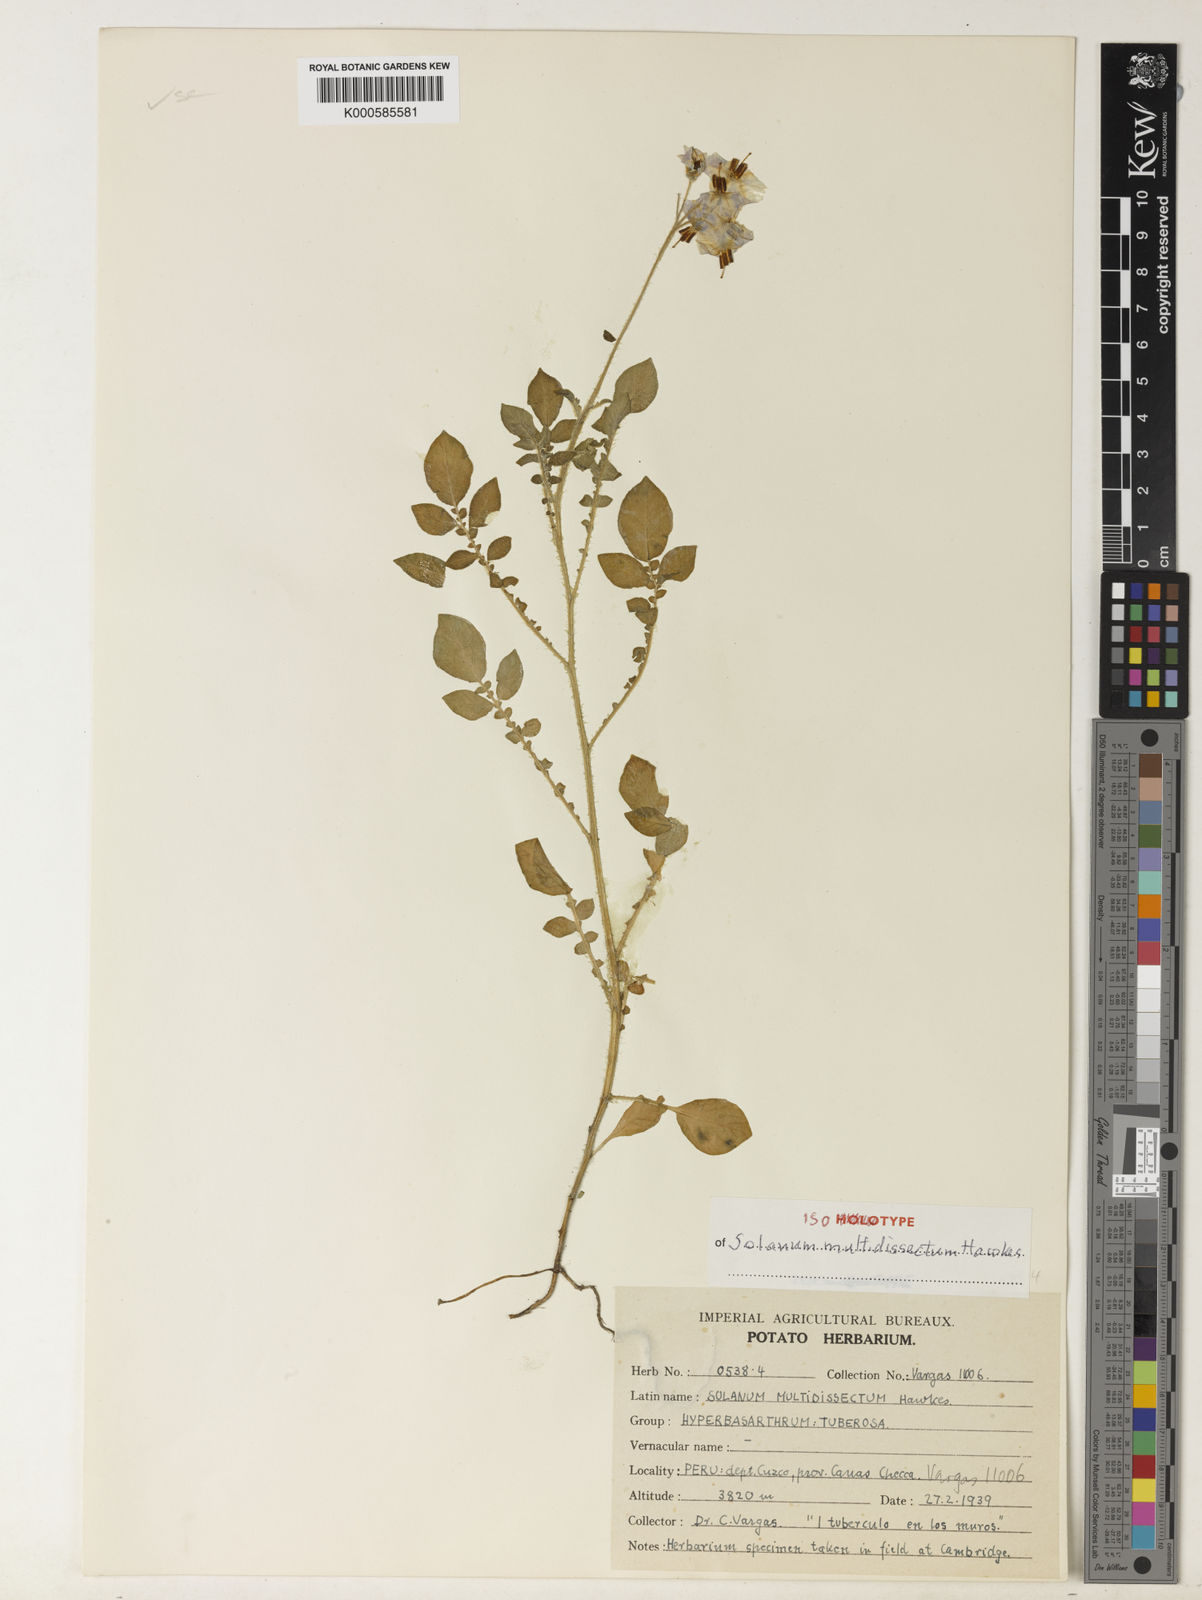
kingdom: Plantae
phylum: Tracheophyta
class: Magnoliopsida
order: Solanales
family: Solanaceae
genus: Solanum
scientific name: Solanum candolleanum
